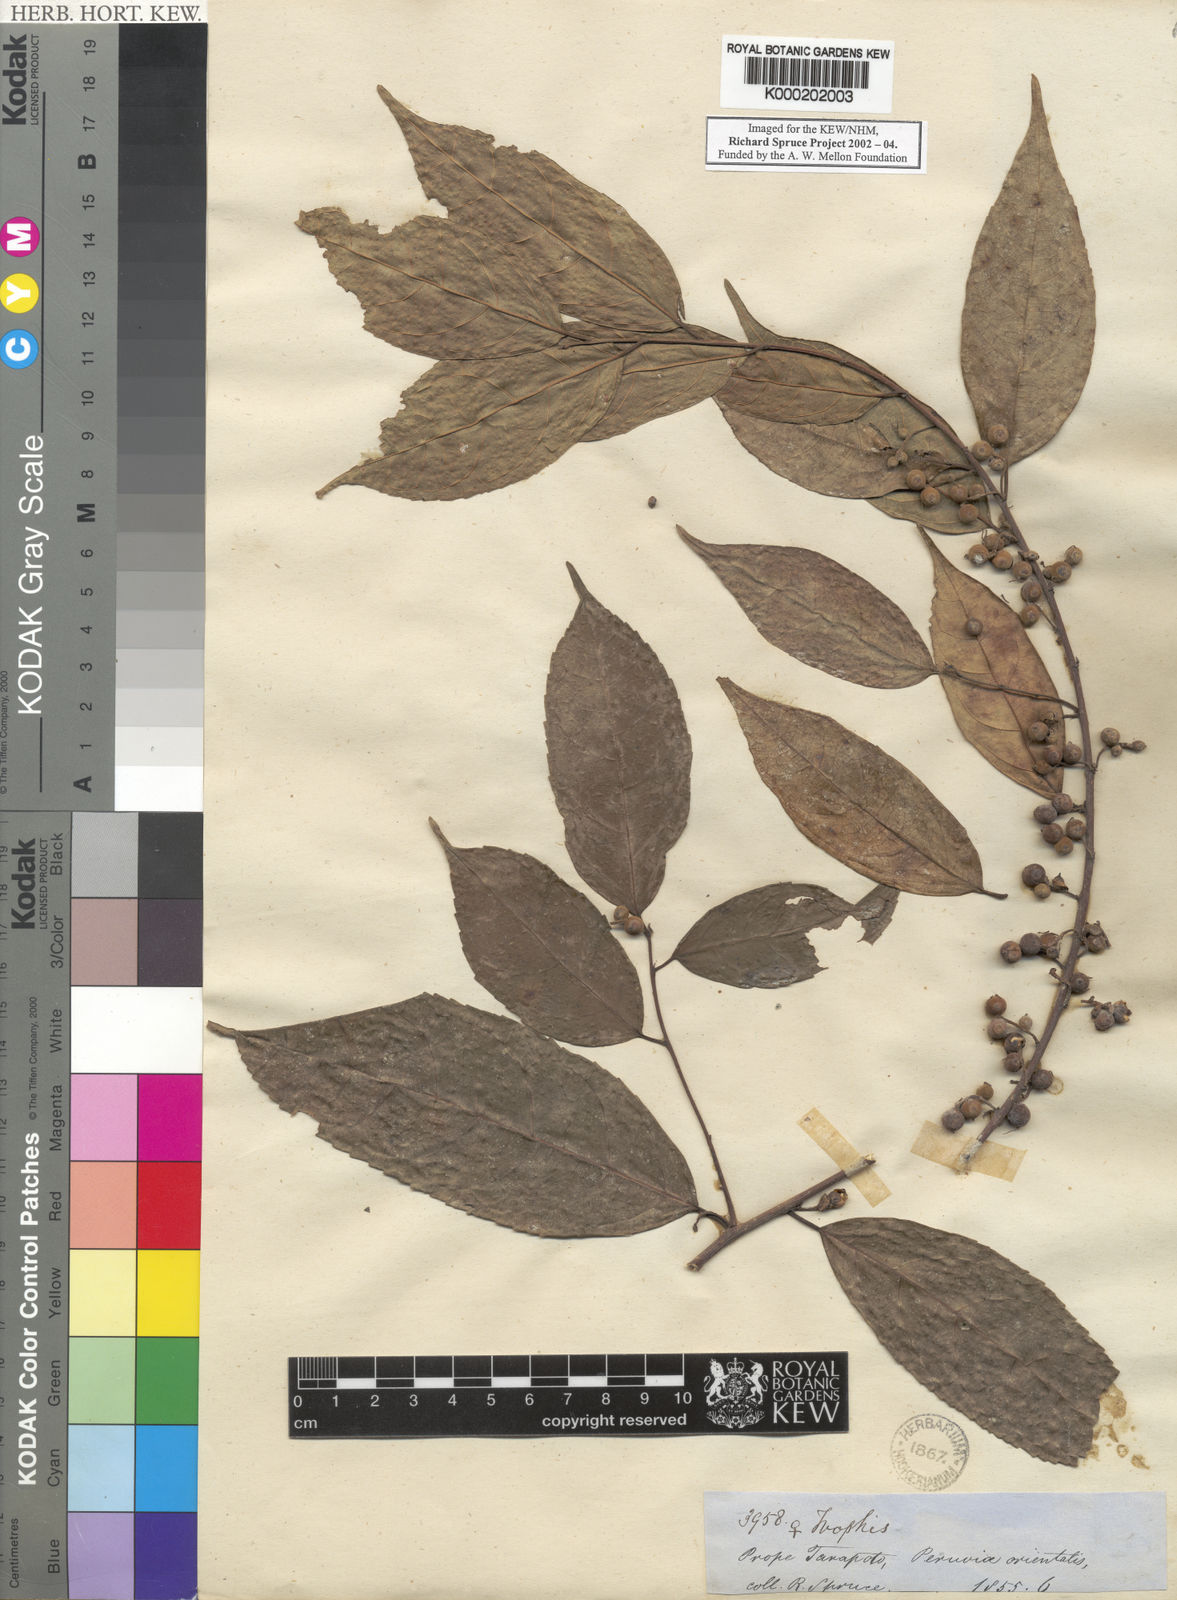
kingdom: Plantae
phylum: Tracheophyta
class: Magnoliopsida
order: Rosales
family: Moraceae
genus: Trophis
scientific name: Trophis
